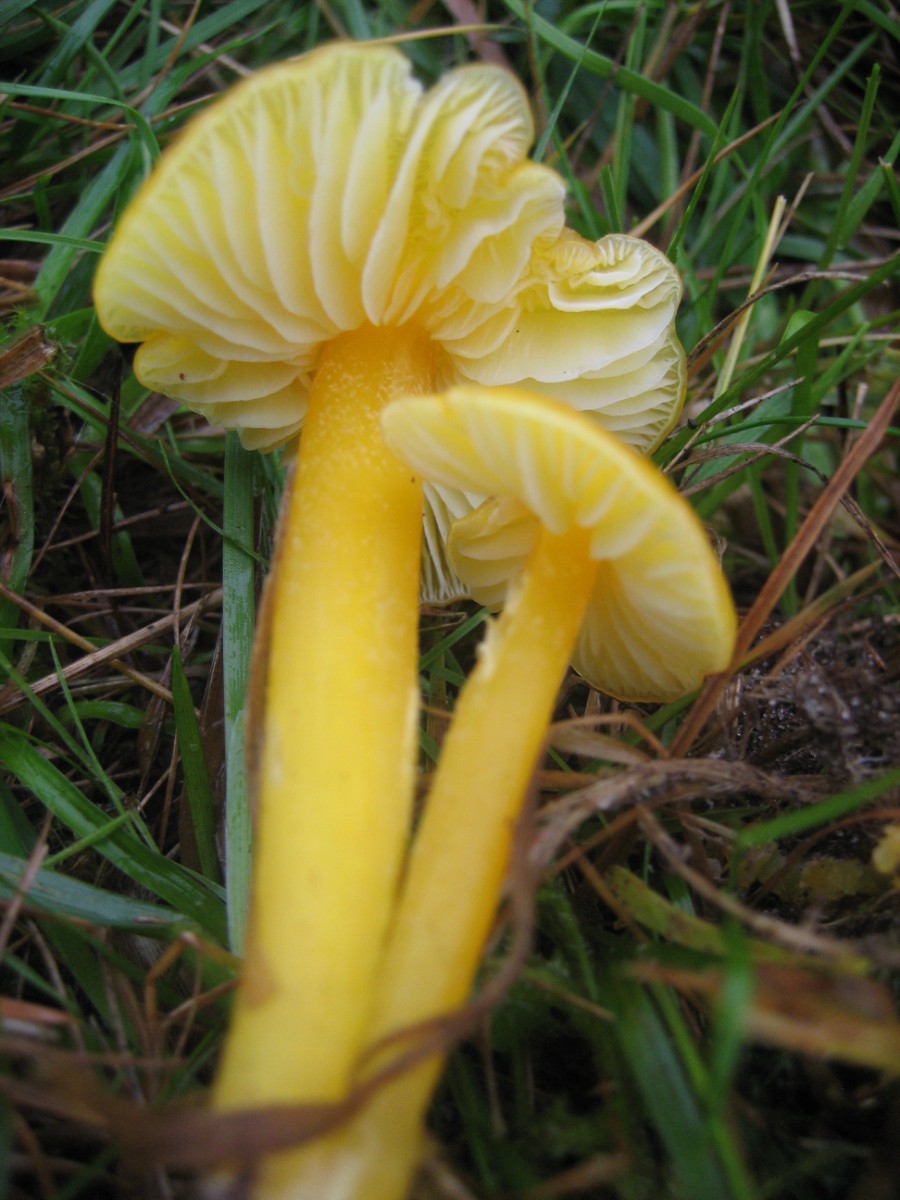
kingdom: Fungi
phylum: Basidiomycota
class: Agaricomycetes
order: Agaricales
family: Hygrophoraceae
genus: Hygrocybe
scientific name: Hygrocybe chlorophana
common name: gul vokshat
